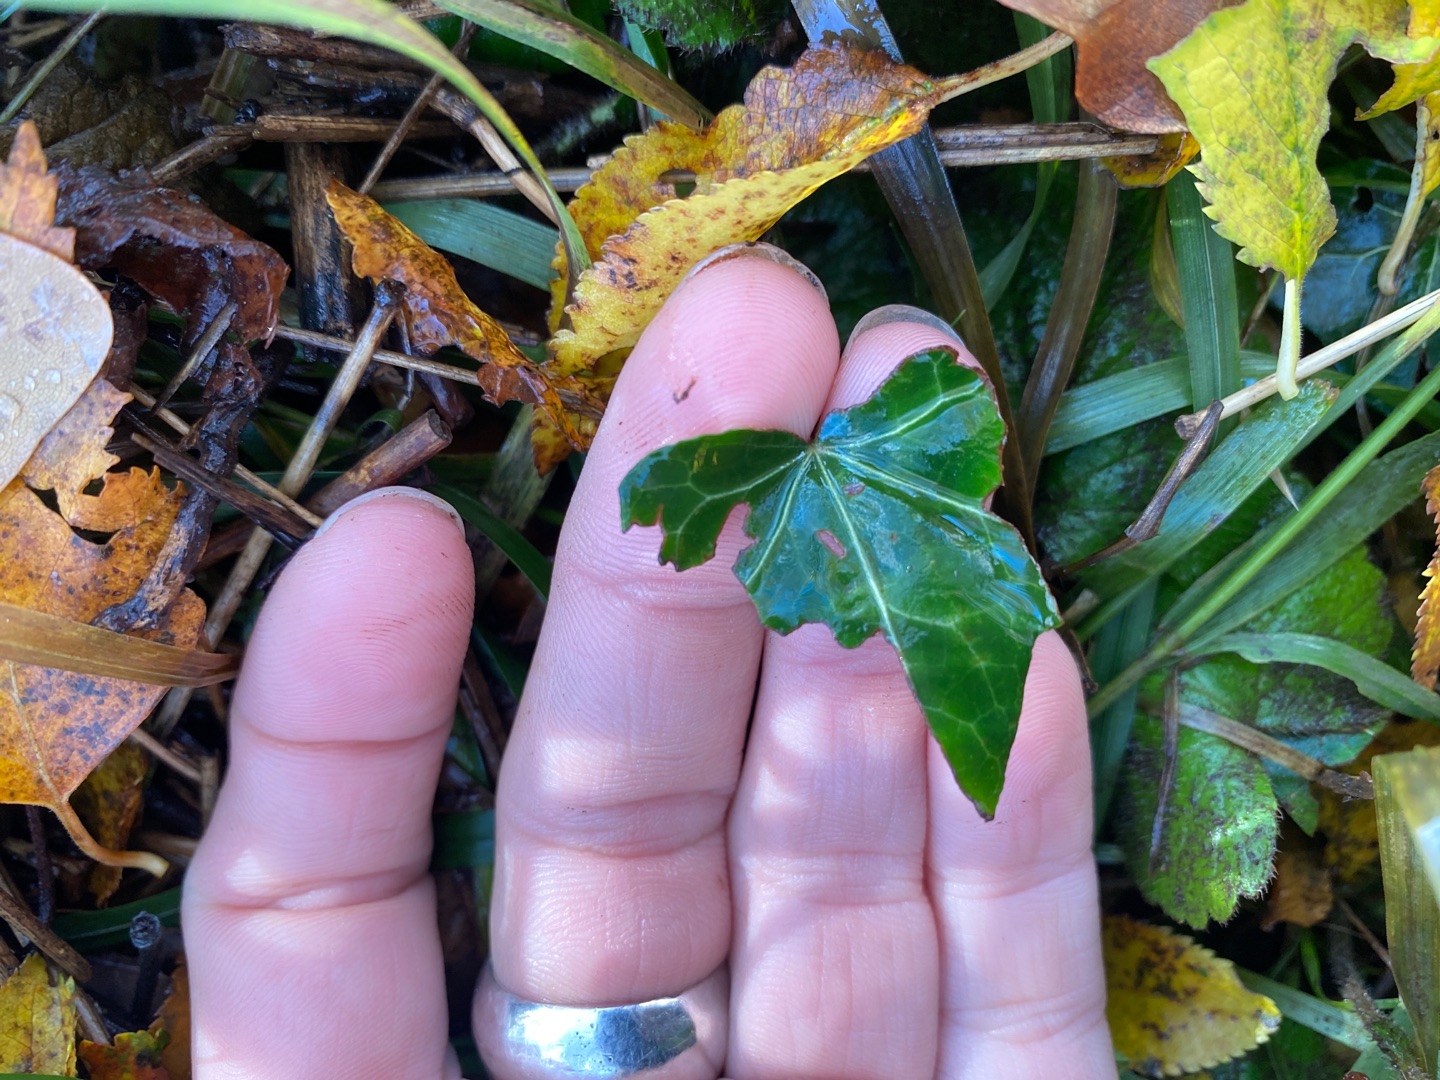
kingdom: Plantae
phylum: Tracheophyta
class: Magnoliopsida
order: Apiales
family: Araliaceae
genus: Hedera
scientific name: Hedera helix
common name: Vedbend
